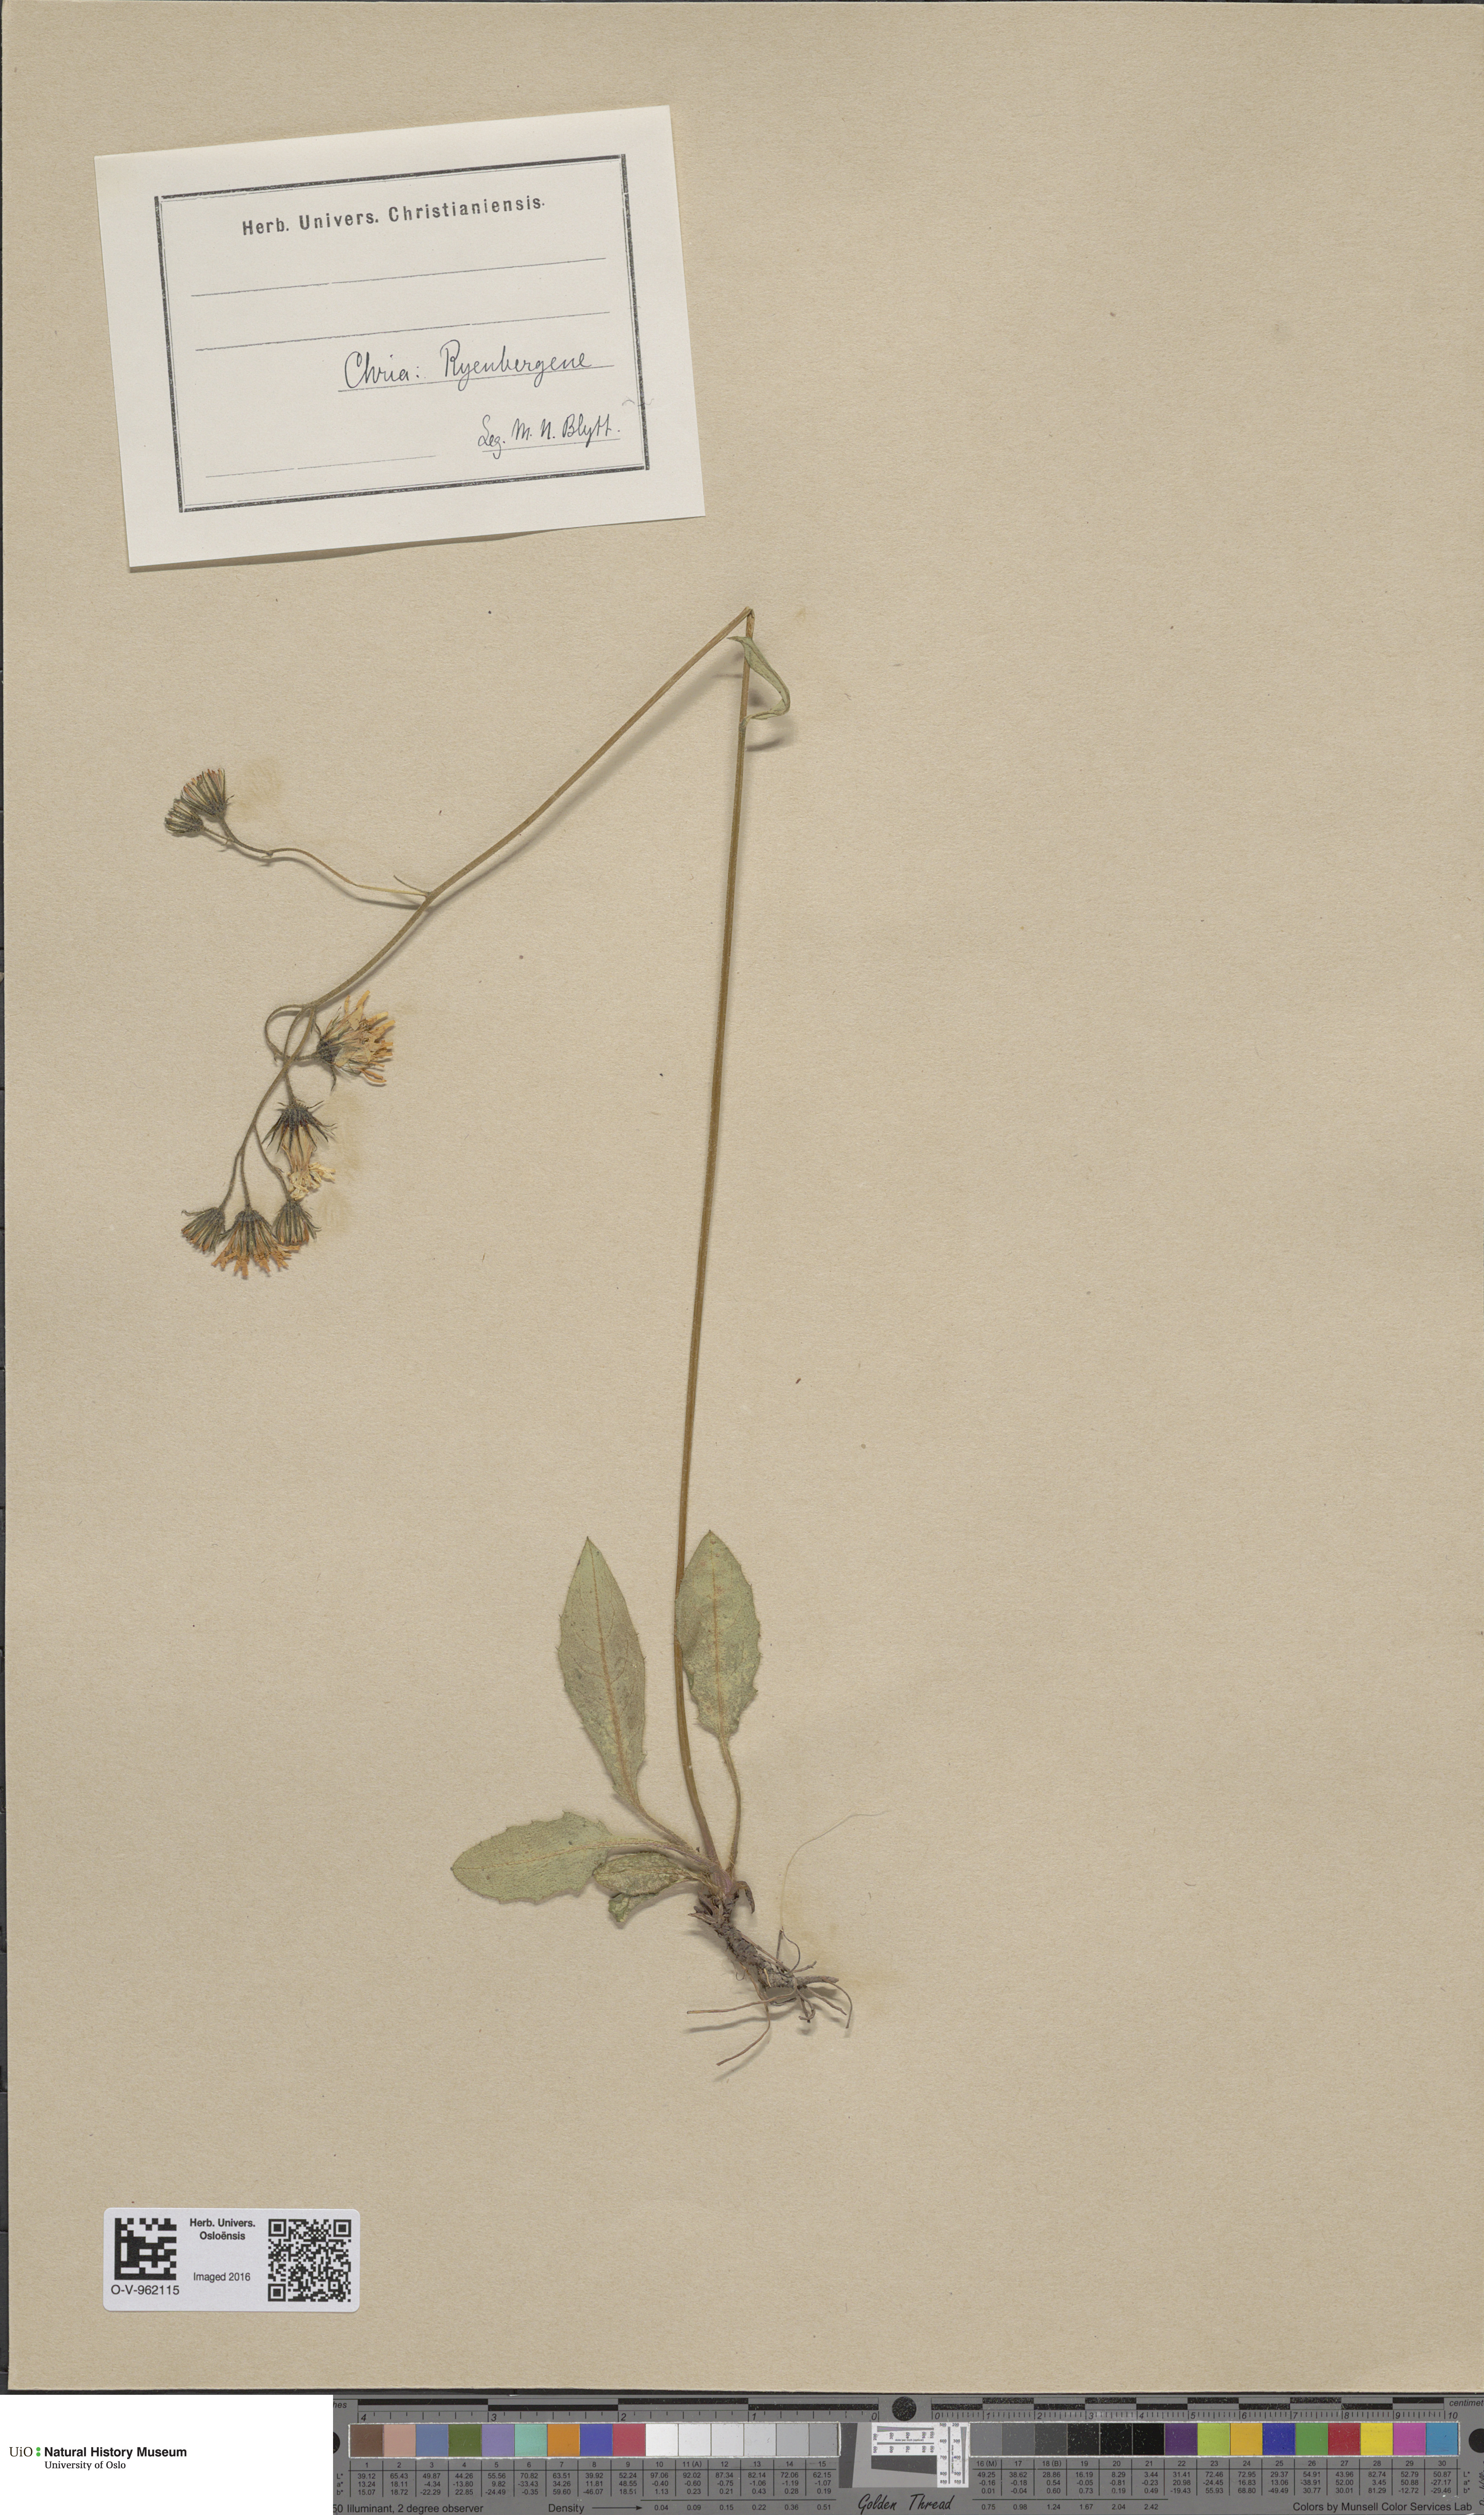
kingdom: Plantae
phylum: Tracheophyta
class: Magnoliopsida
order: Asterales
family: Asteraceae
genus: Hieracium
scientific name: Hieracium
